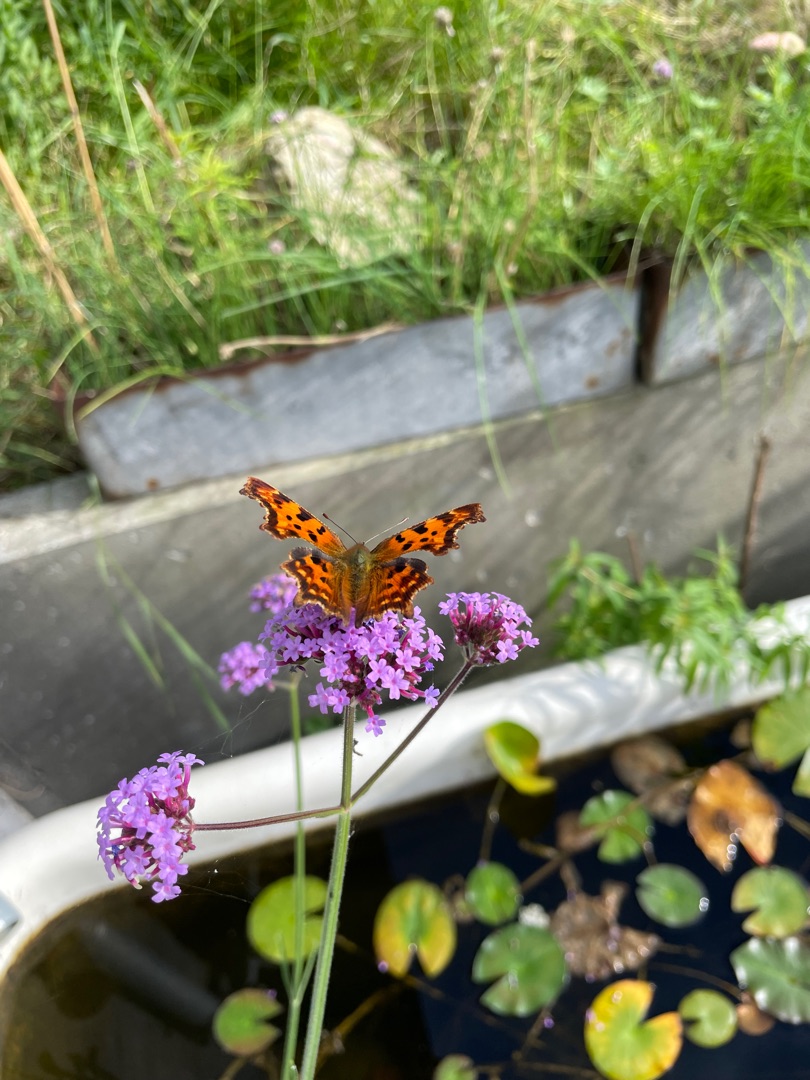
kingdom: Animalia
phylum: Arthropoda
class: Insecta
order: Lepidoptera
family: Nymphalidae
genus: Polygonia
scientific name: Polygonia c-album
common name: Det hvide C
